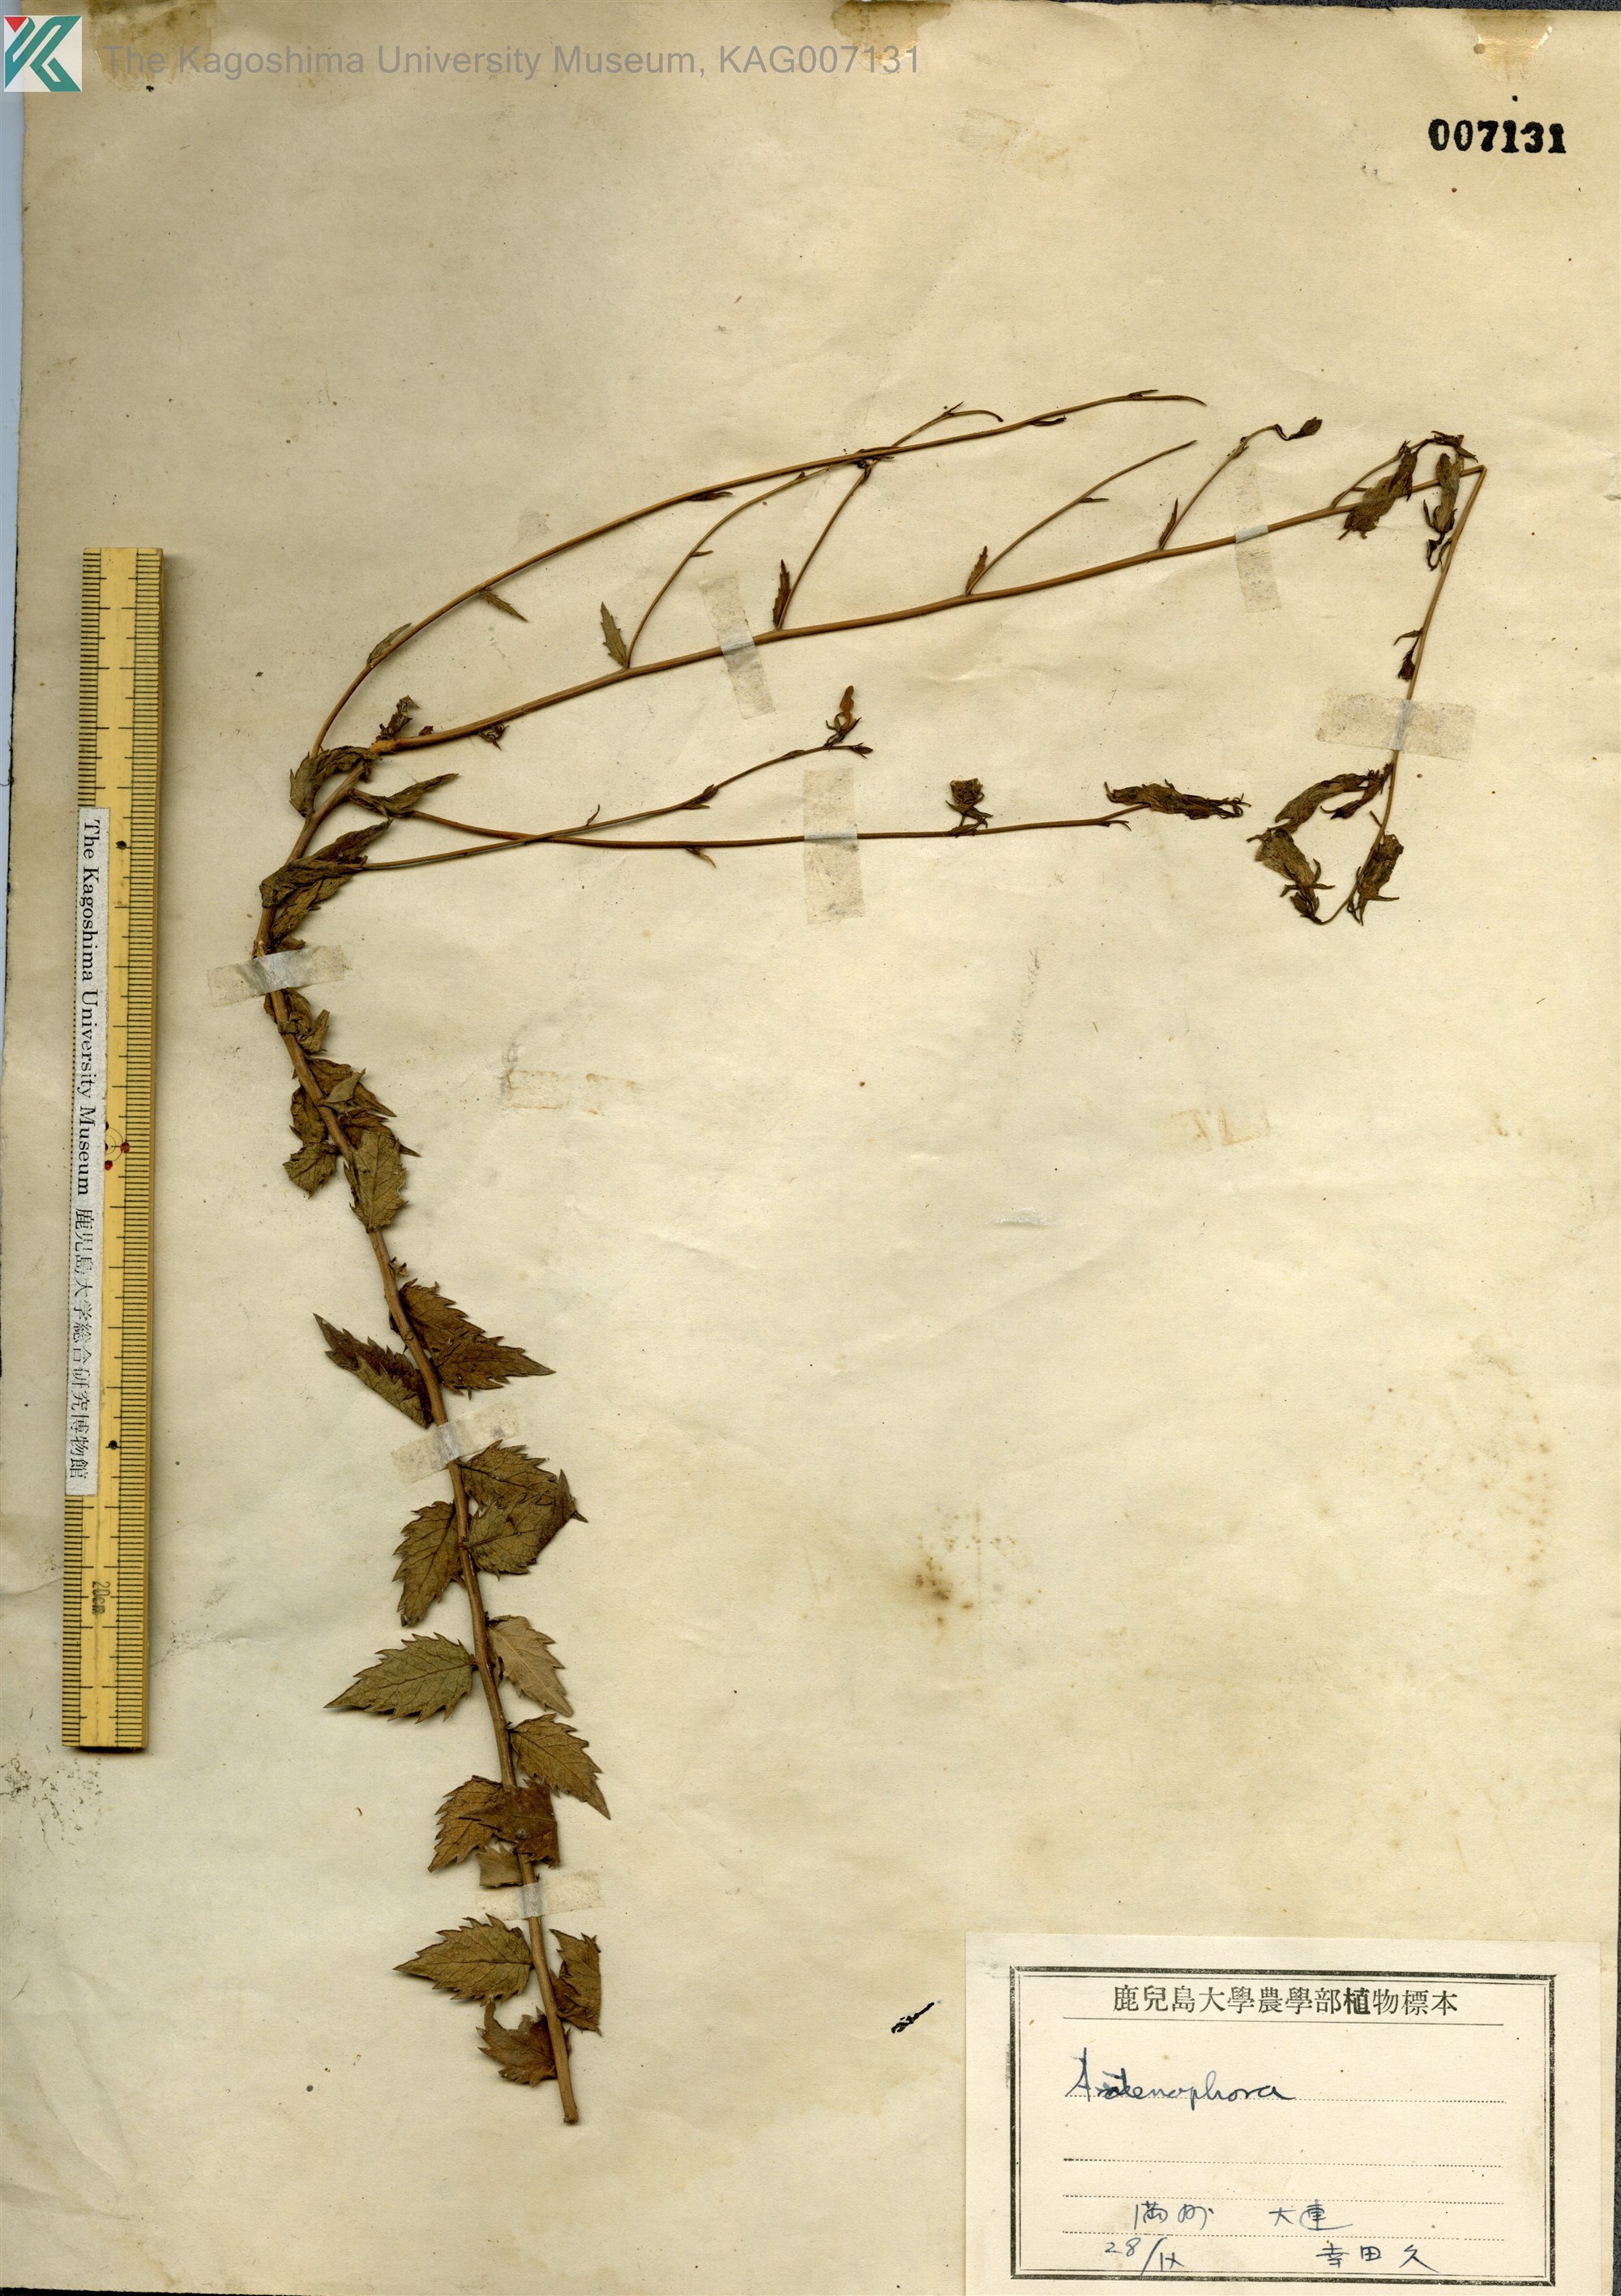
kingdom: Plantae
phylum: Tracheophyta
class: Magnoliopsida
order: Asterales
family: Campanulaceae
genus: Adenophora
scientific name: Adenophora polyantha
